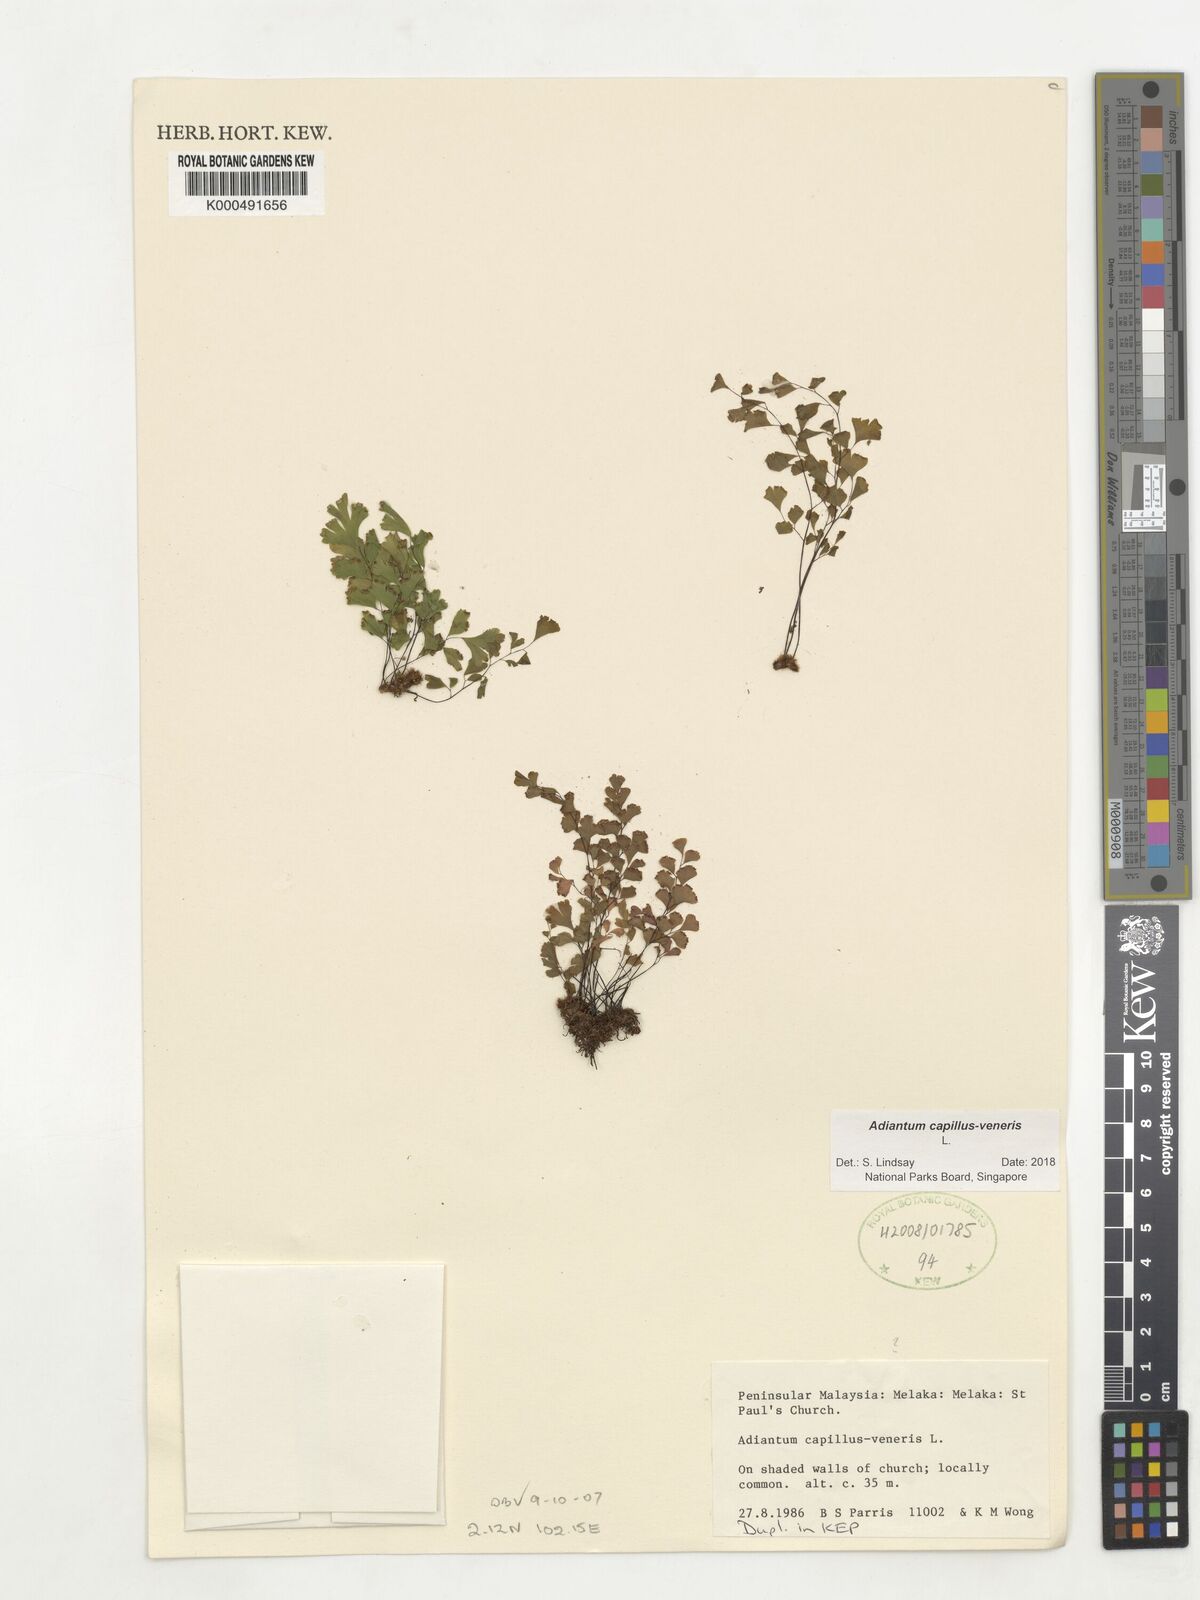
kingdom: Plantae
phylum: Tracheophyta
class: Polypodiopsida
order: Polypodiales
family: Pteridaceae
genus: Adiantum
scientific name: Adiantum capillus-veneris
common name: Maidenhair fern
